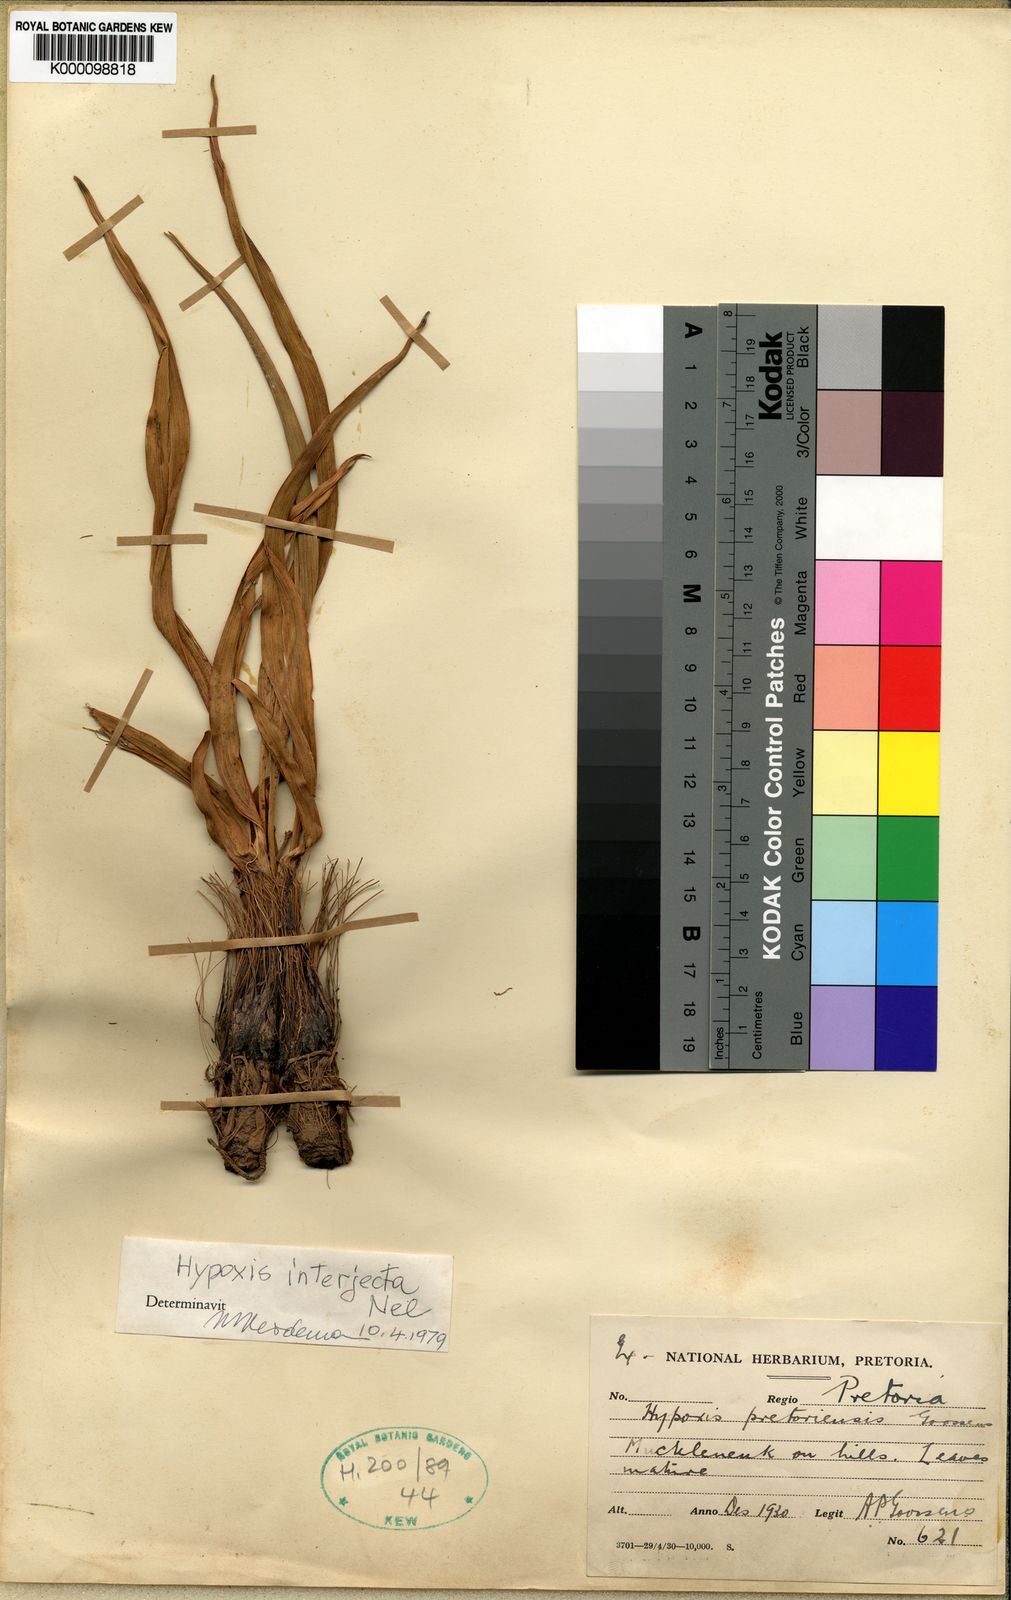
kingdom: Plantae
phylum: Tracheophyta
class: Liliopsida
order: Asparagales
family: Hypoxidaceae
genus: Hypoxis
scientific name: Hypoxis interjecta
